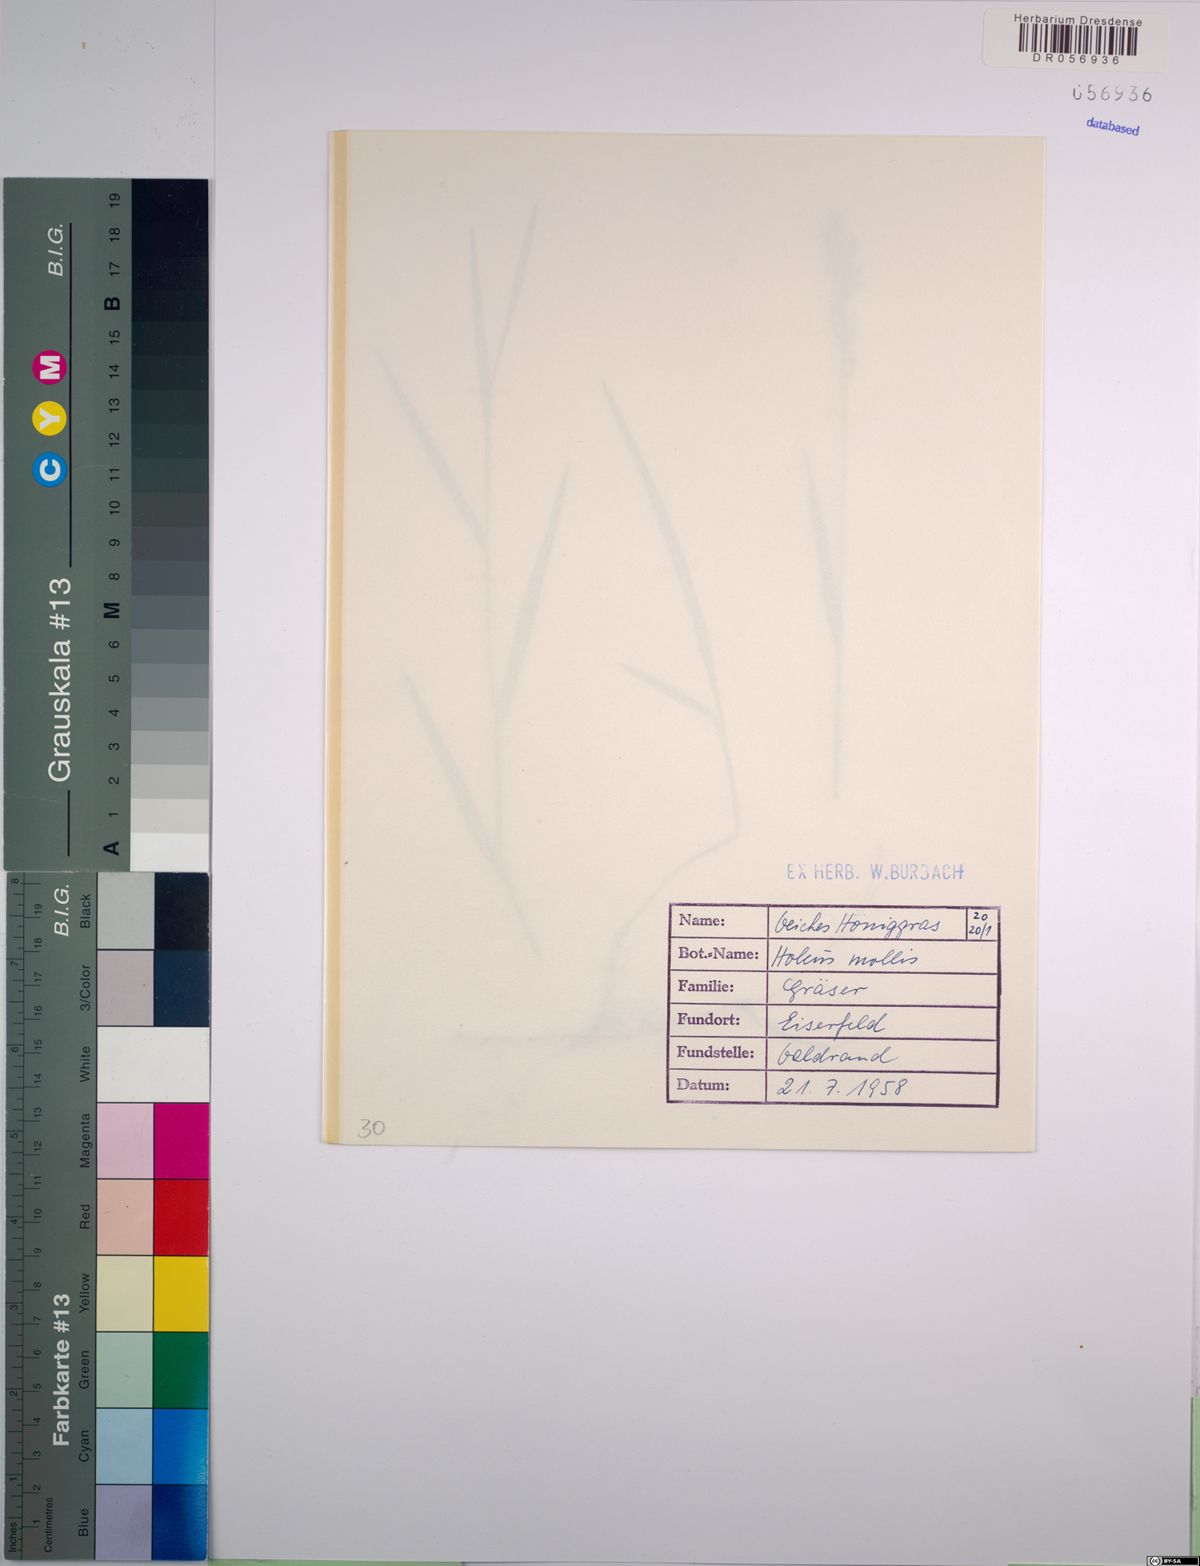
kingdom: Plantae
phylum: Tracheophyta
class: Liliopsida
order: Poales
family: Poaceae
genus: Holcus
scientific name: Holcus mollis
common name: Creeping velvetgrass
